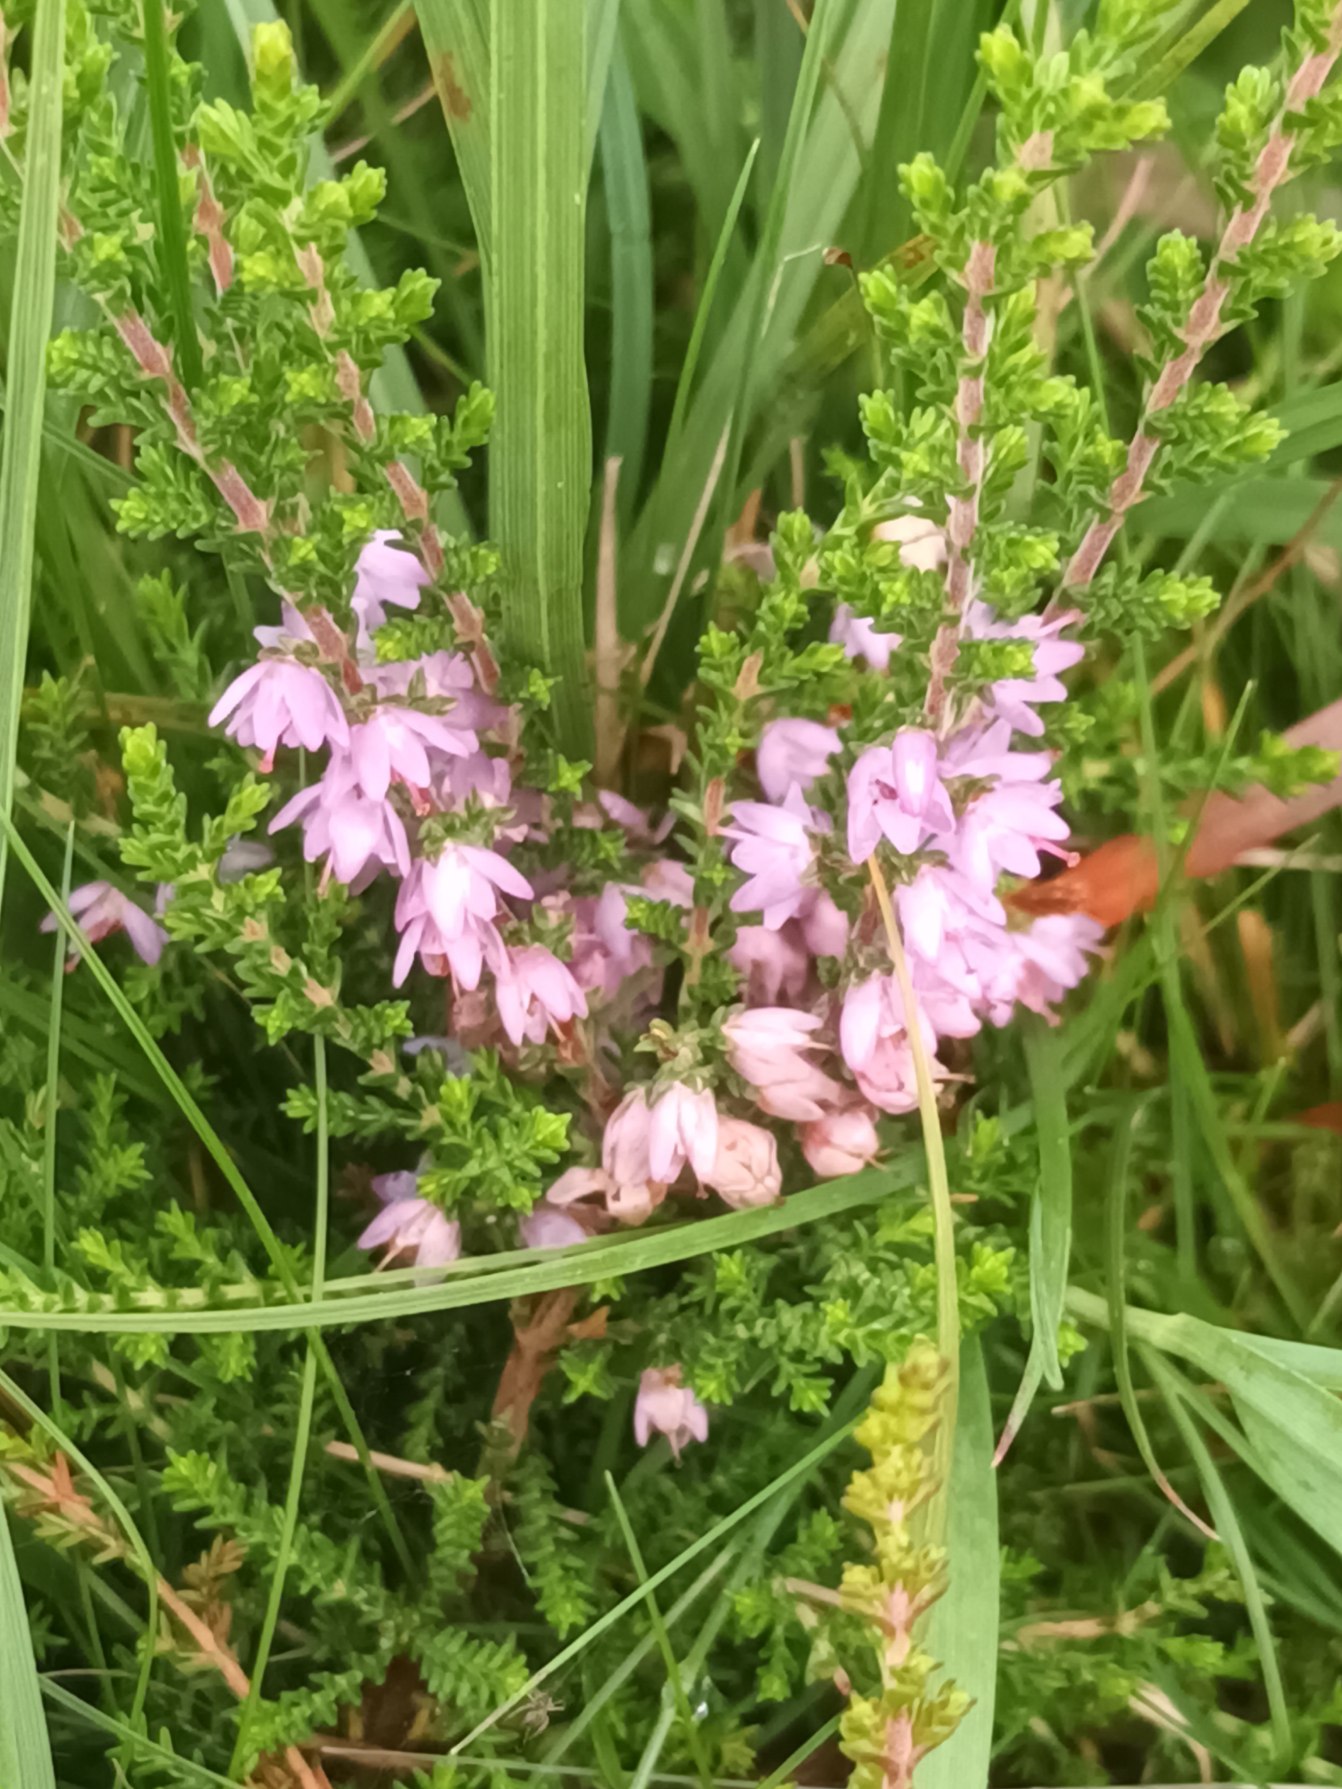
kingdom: Plantae
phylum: Tracheophyta
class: Magnoliopsida
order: Ericales
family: Ericaceae
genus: Calluna
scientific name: Calluna vulgaris
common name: Hedelyng
